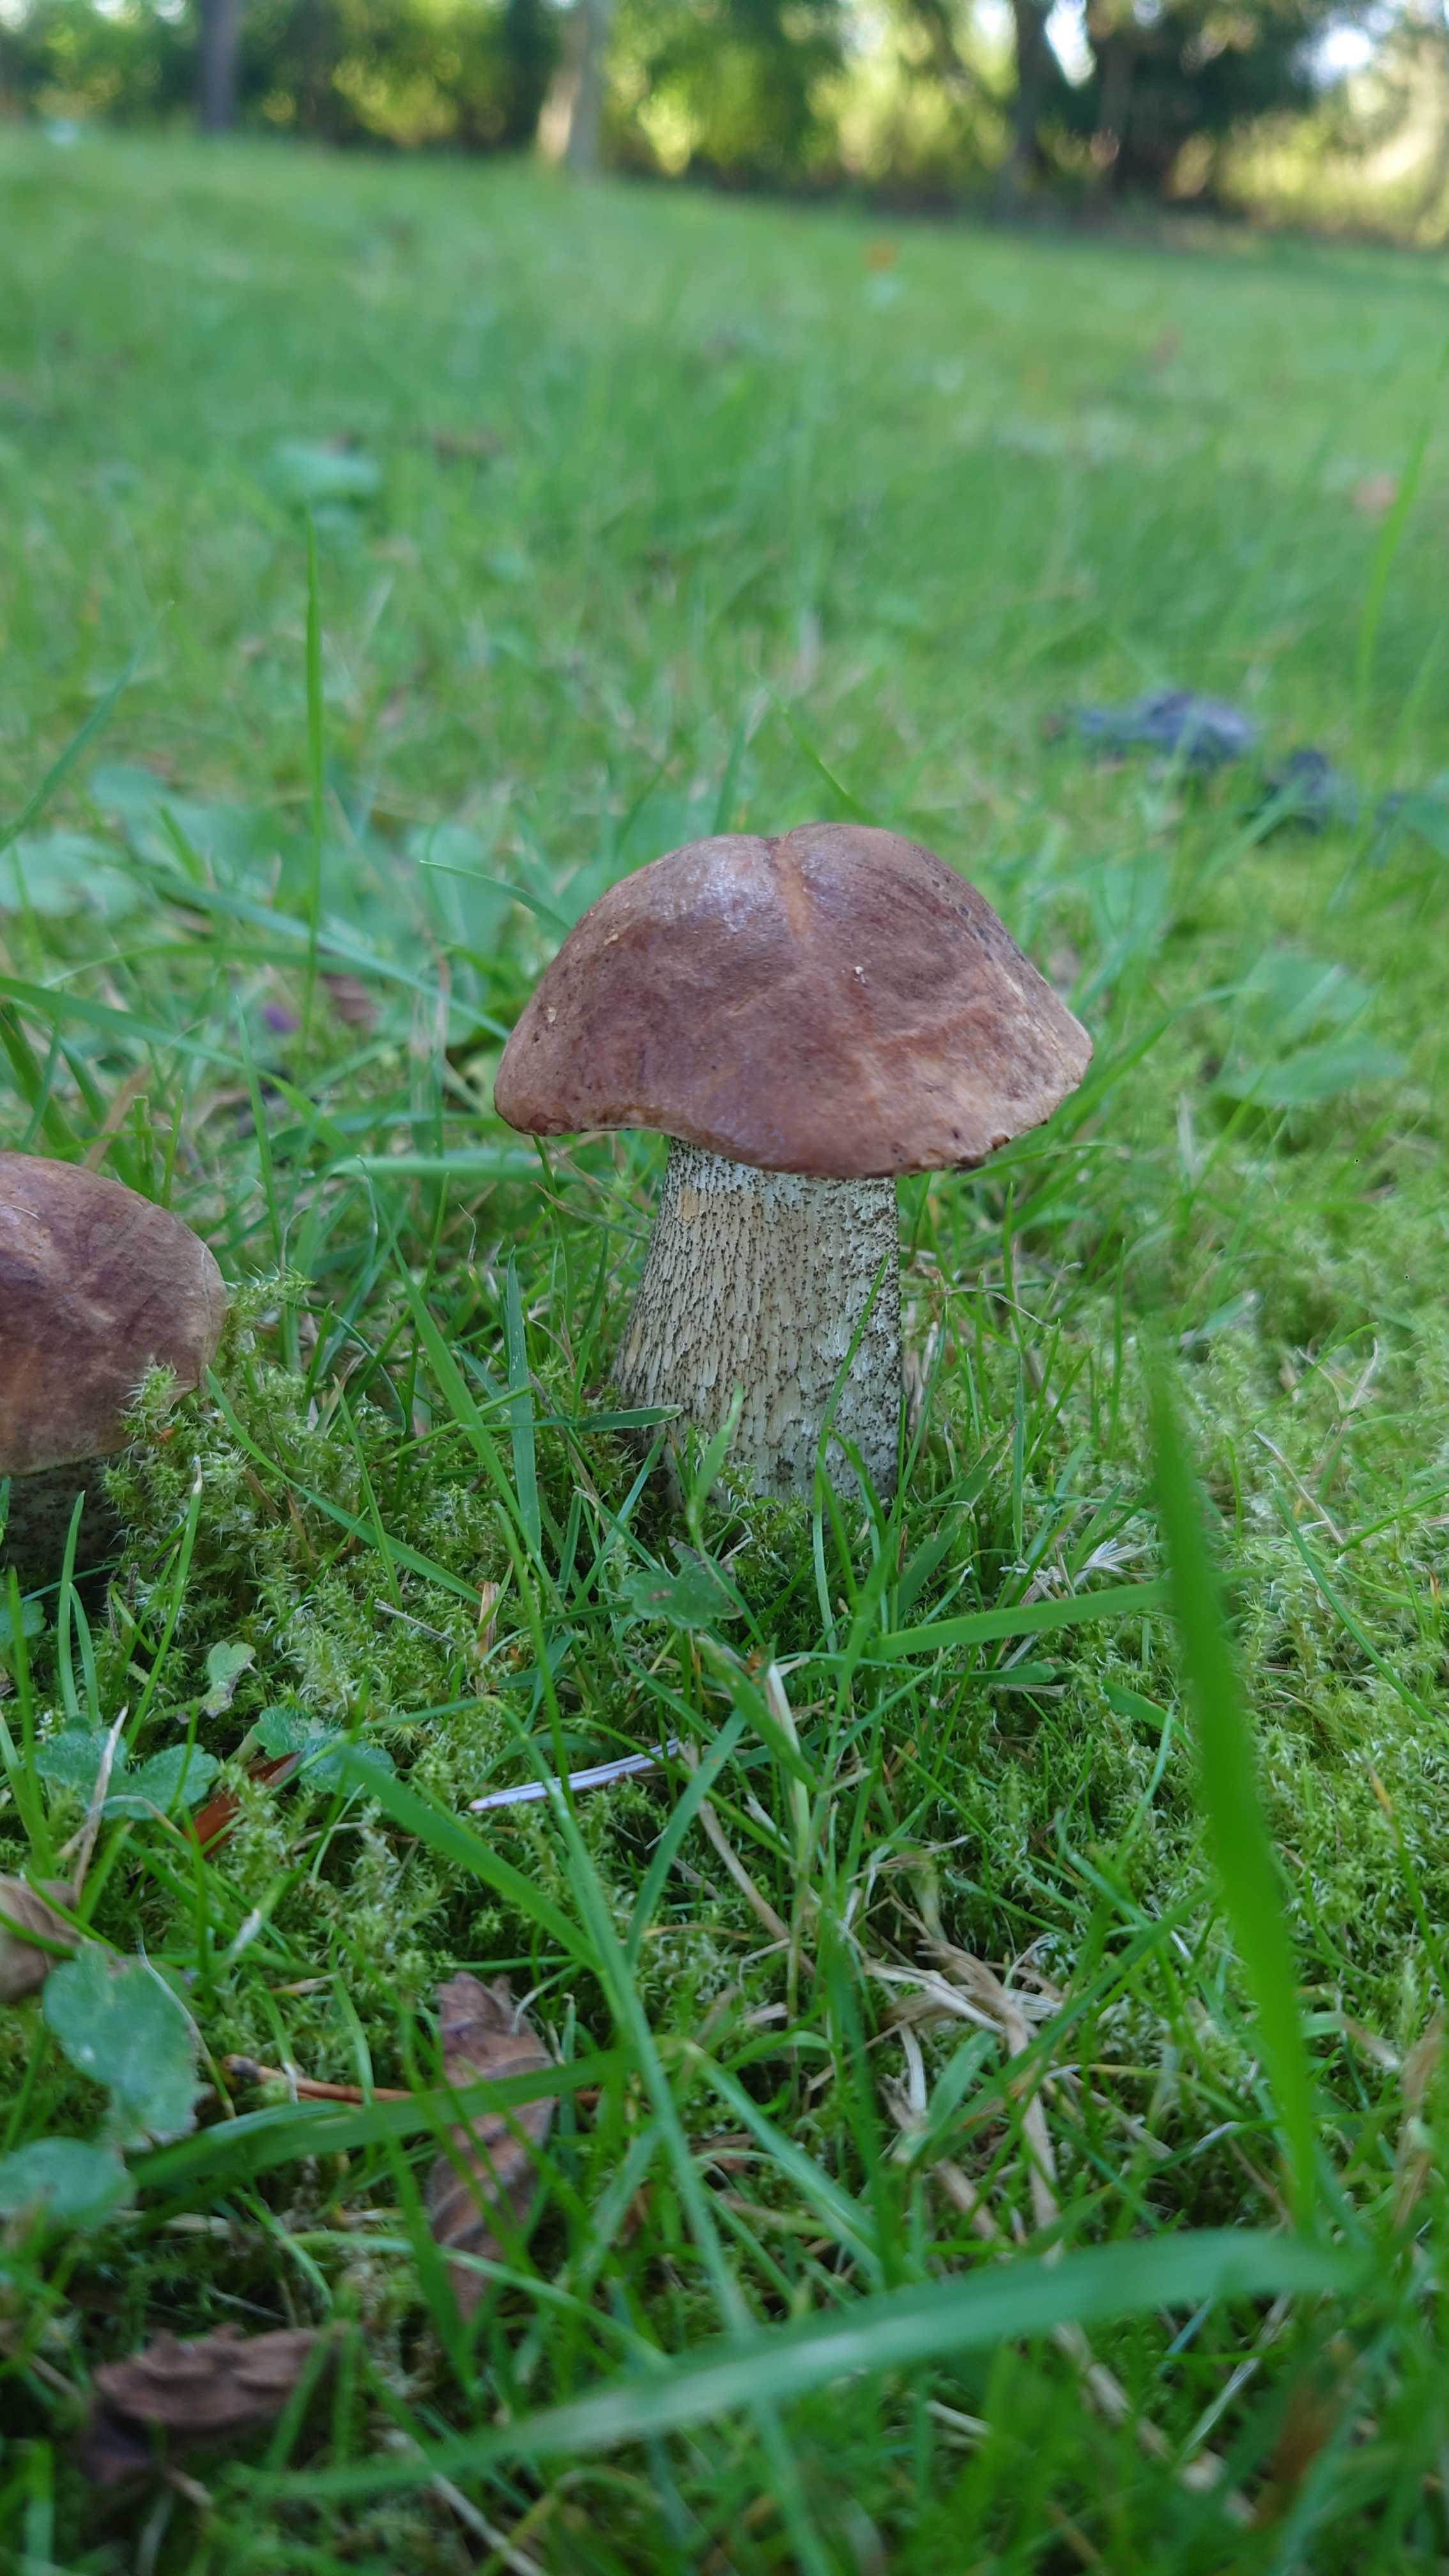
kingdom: Fungi
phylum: Basidiomycota
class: Agaricomycetes
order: Boletales
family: Boletaceae
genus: Leccinum
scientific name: Leccinum scabrum
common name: brun skælrørhat
